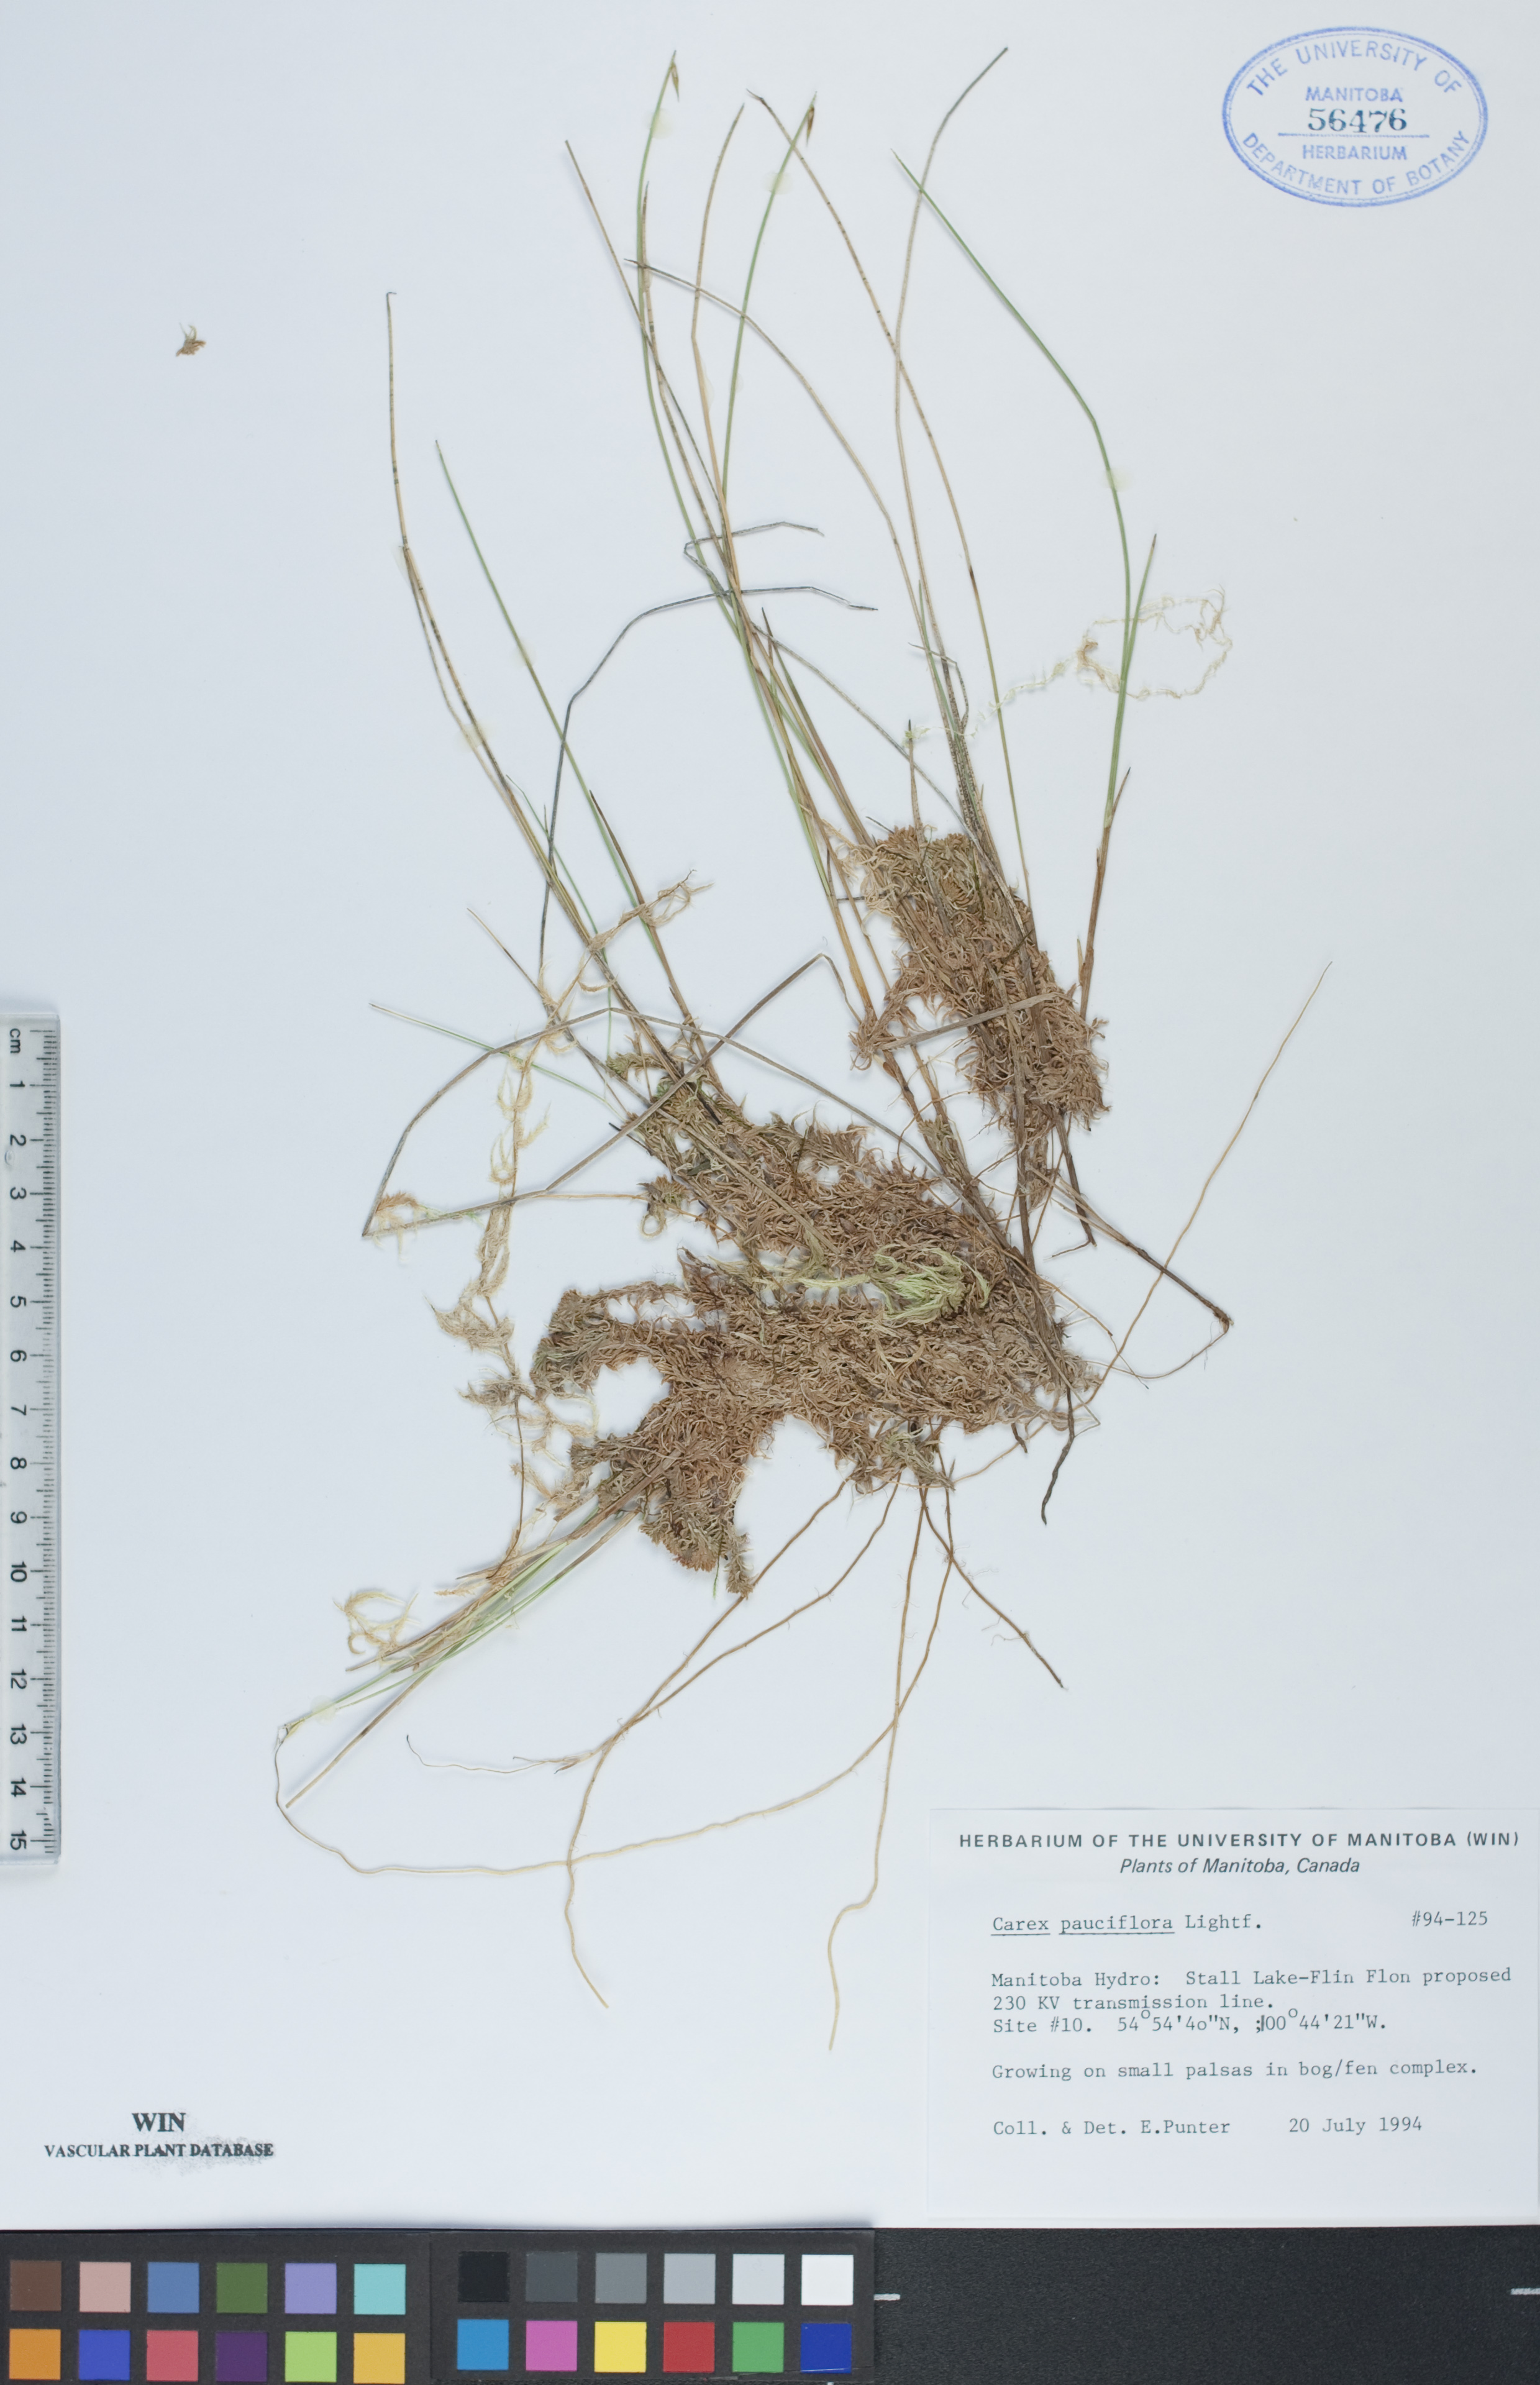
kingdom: Plantae
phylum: Tracheophyta
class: Liliopsida
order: Poales
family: Cyperaceae
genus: Carex
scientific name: Carex pauciflora
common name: Few-flowered sedge
